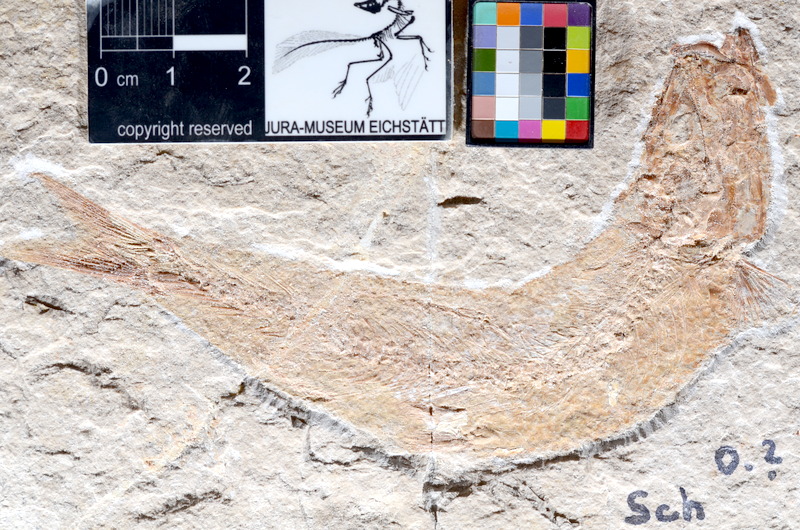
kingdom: Animalia
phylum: Chordata
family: Ascalaboidae
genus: Tharsis
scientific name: Tharsis dubius
